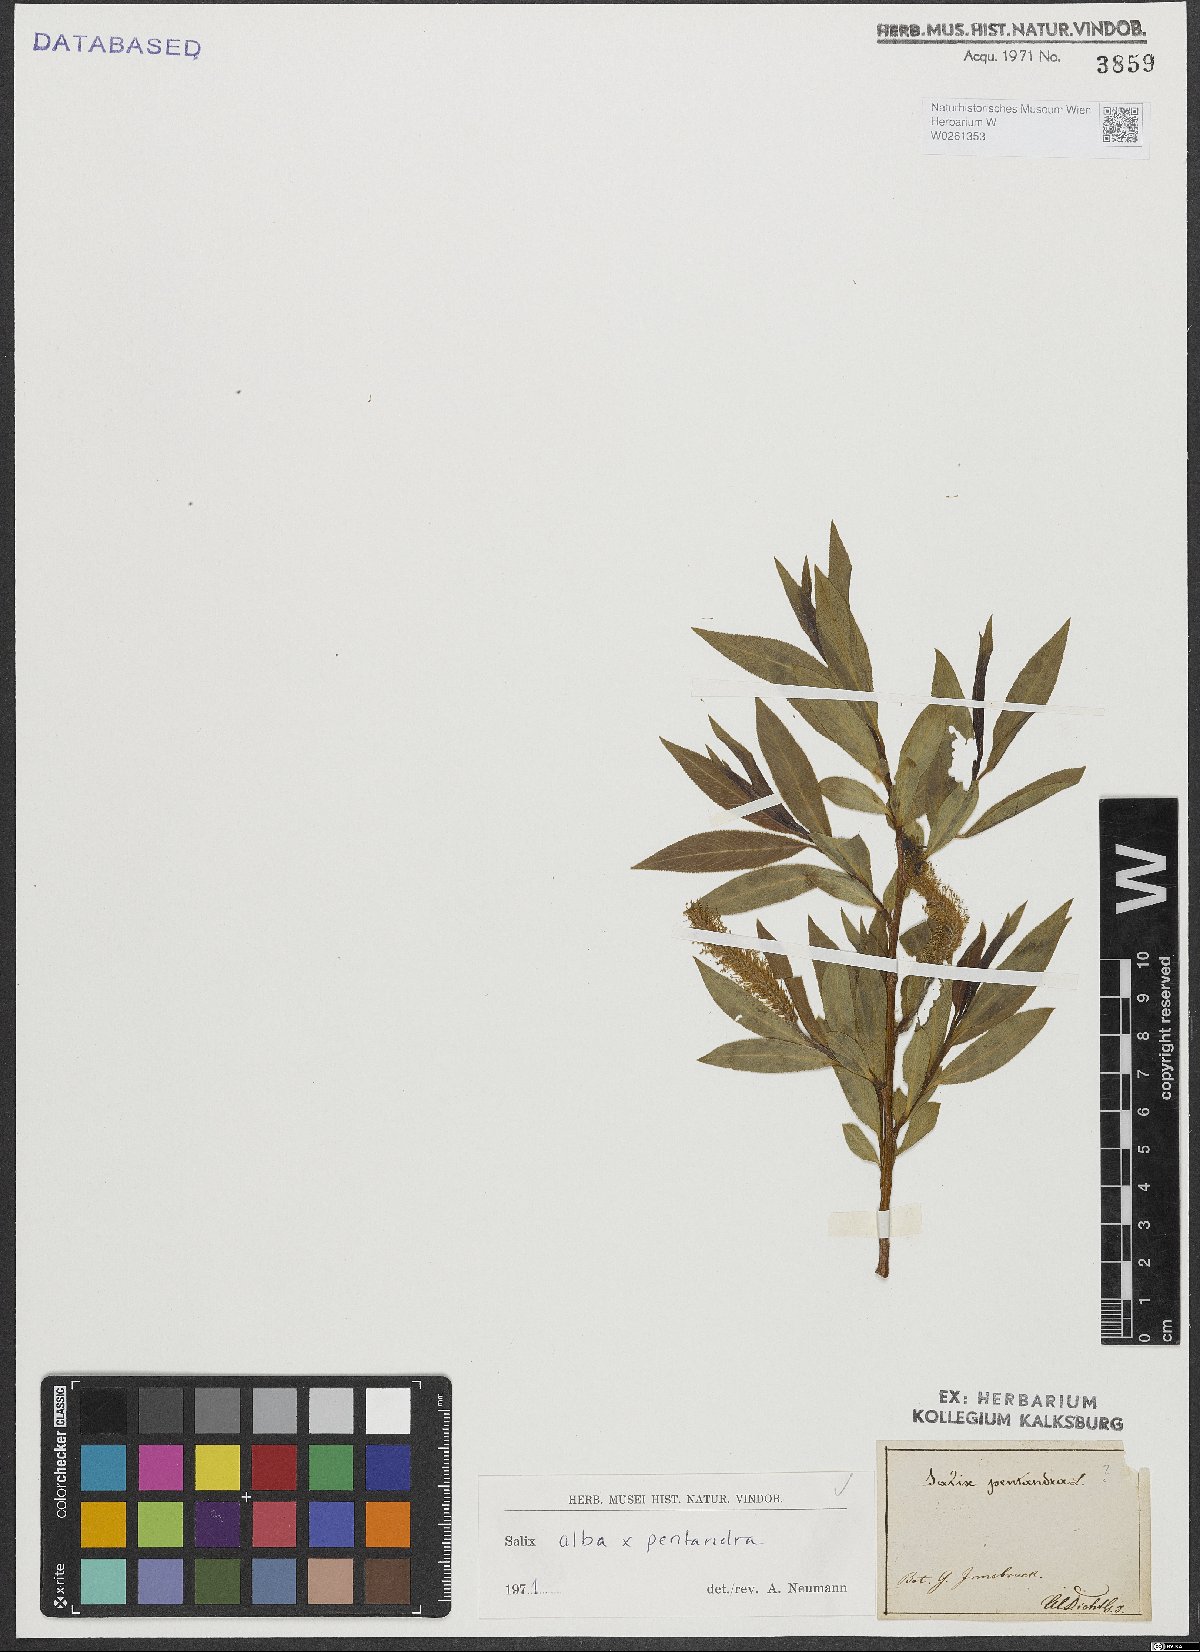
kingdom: Plantae
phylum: Tracheophyta
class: Magnoliopsida
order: Malpighiales
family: Salicaceae
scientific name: Salicaceae
